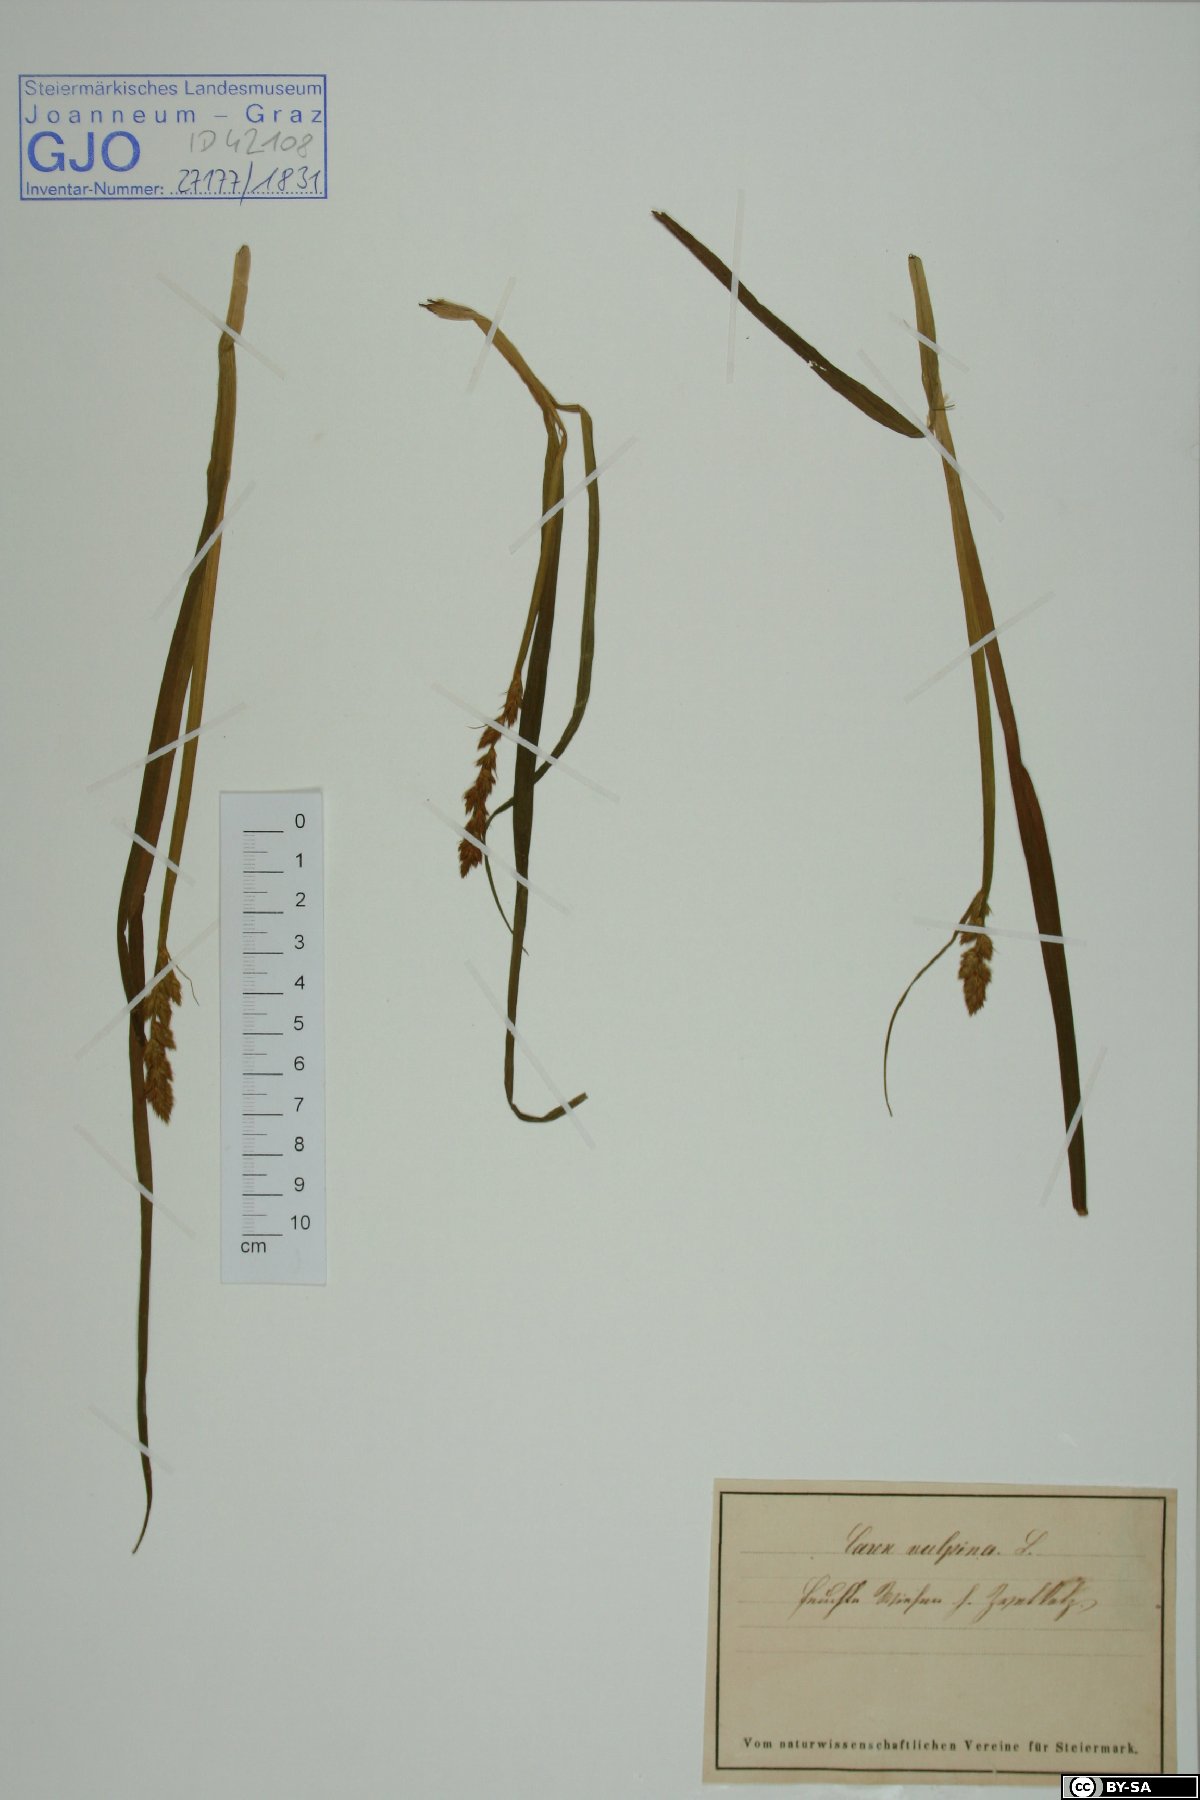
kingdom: Plantae
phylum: Tracheophyta
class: Liliopsida
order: Poales
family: Cyperaceae
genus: Carex
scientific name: Carex vulpina
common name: True fox-sedge
